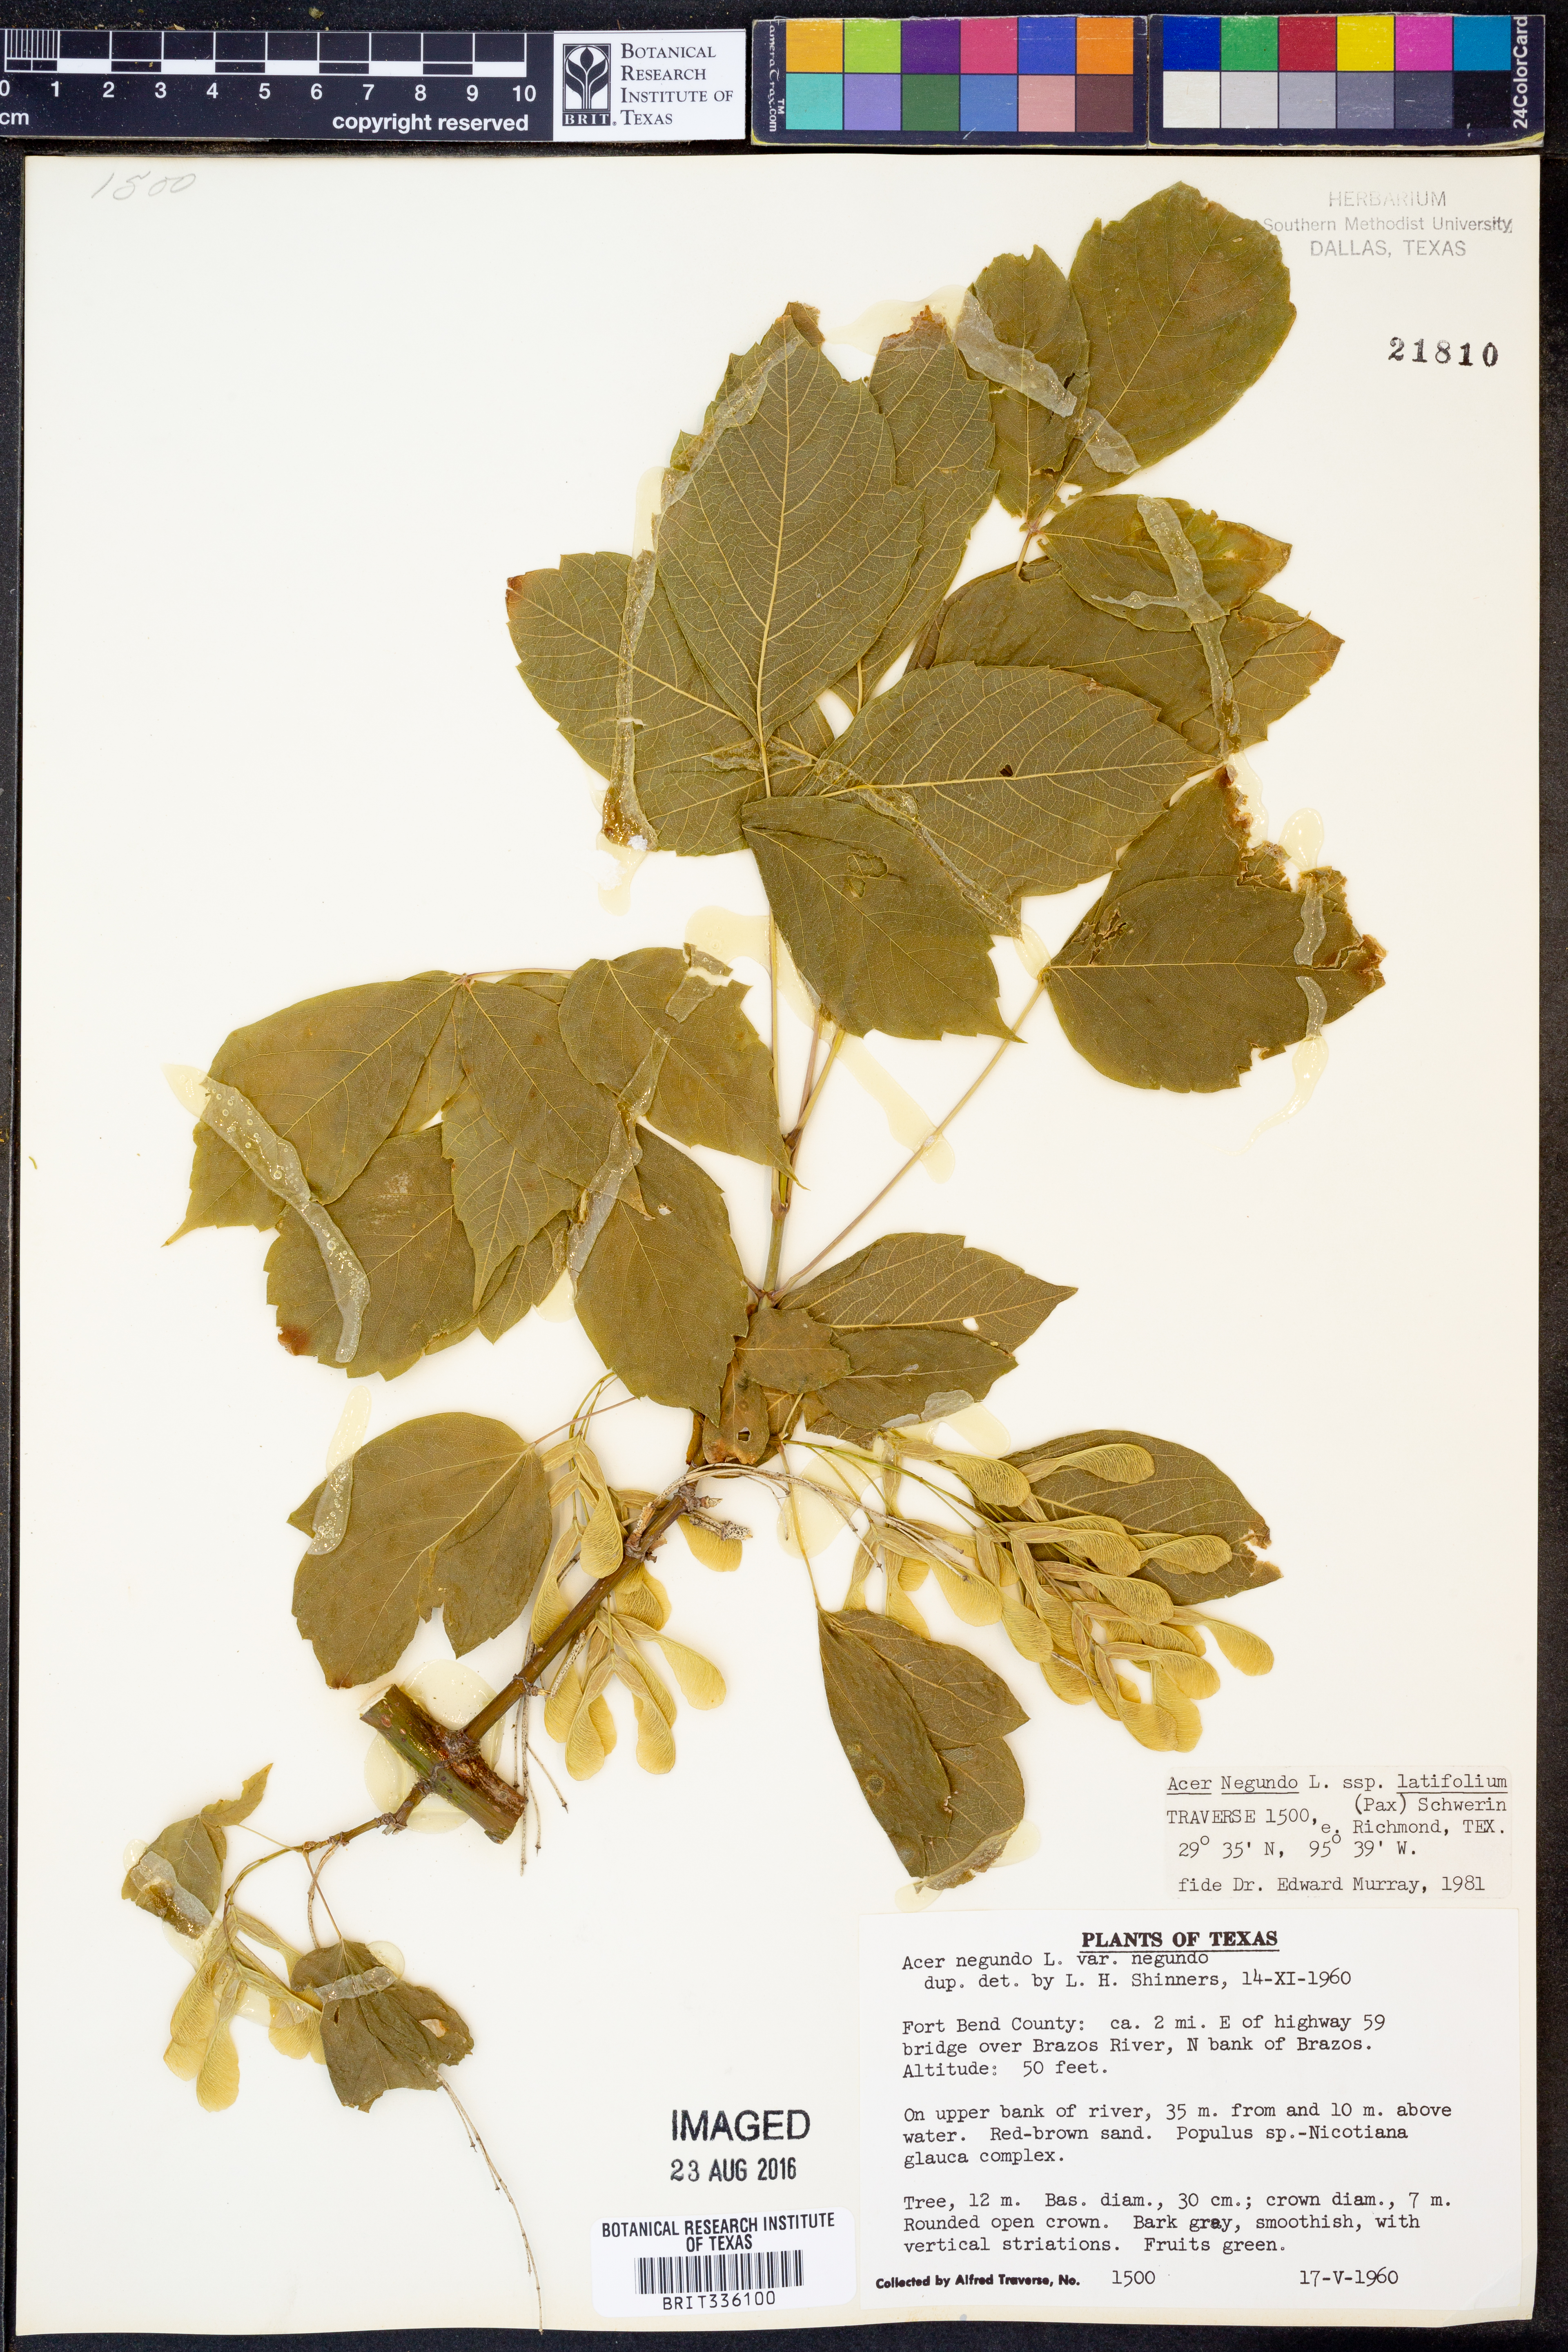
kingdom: Plantae
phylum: Tracheophyta
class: Magnoliopsida
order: Sapindales
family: Sapindaceae
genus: Acer
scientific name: Acer negundo
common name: Ashleaf maple
